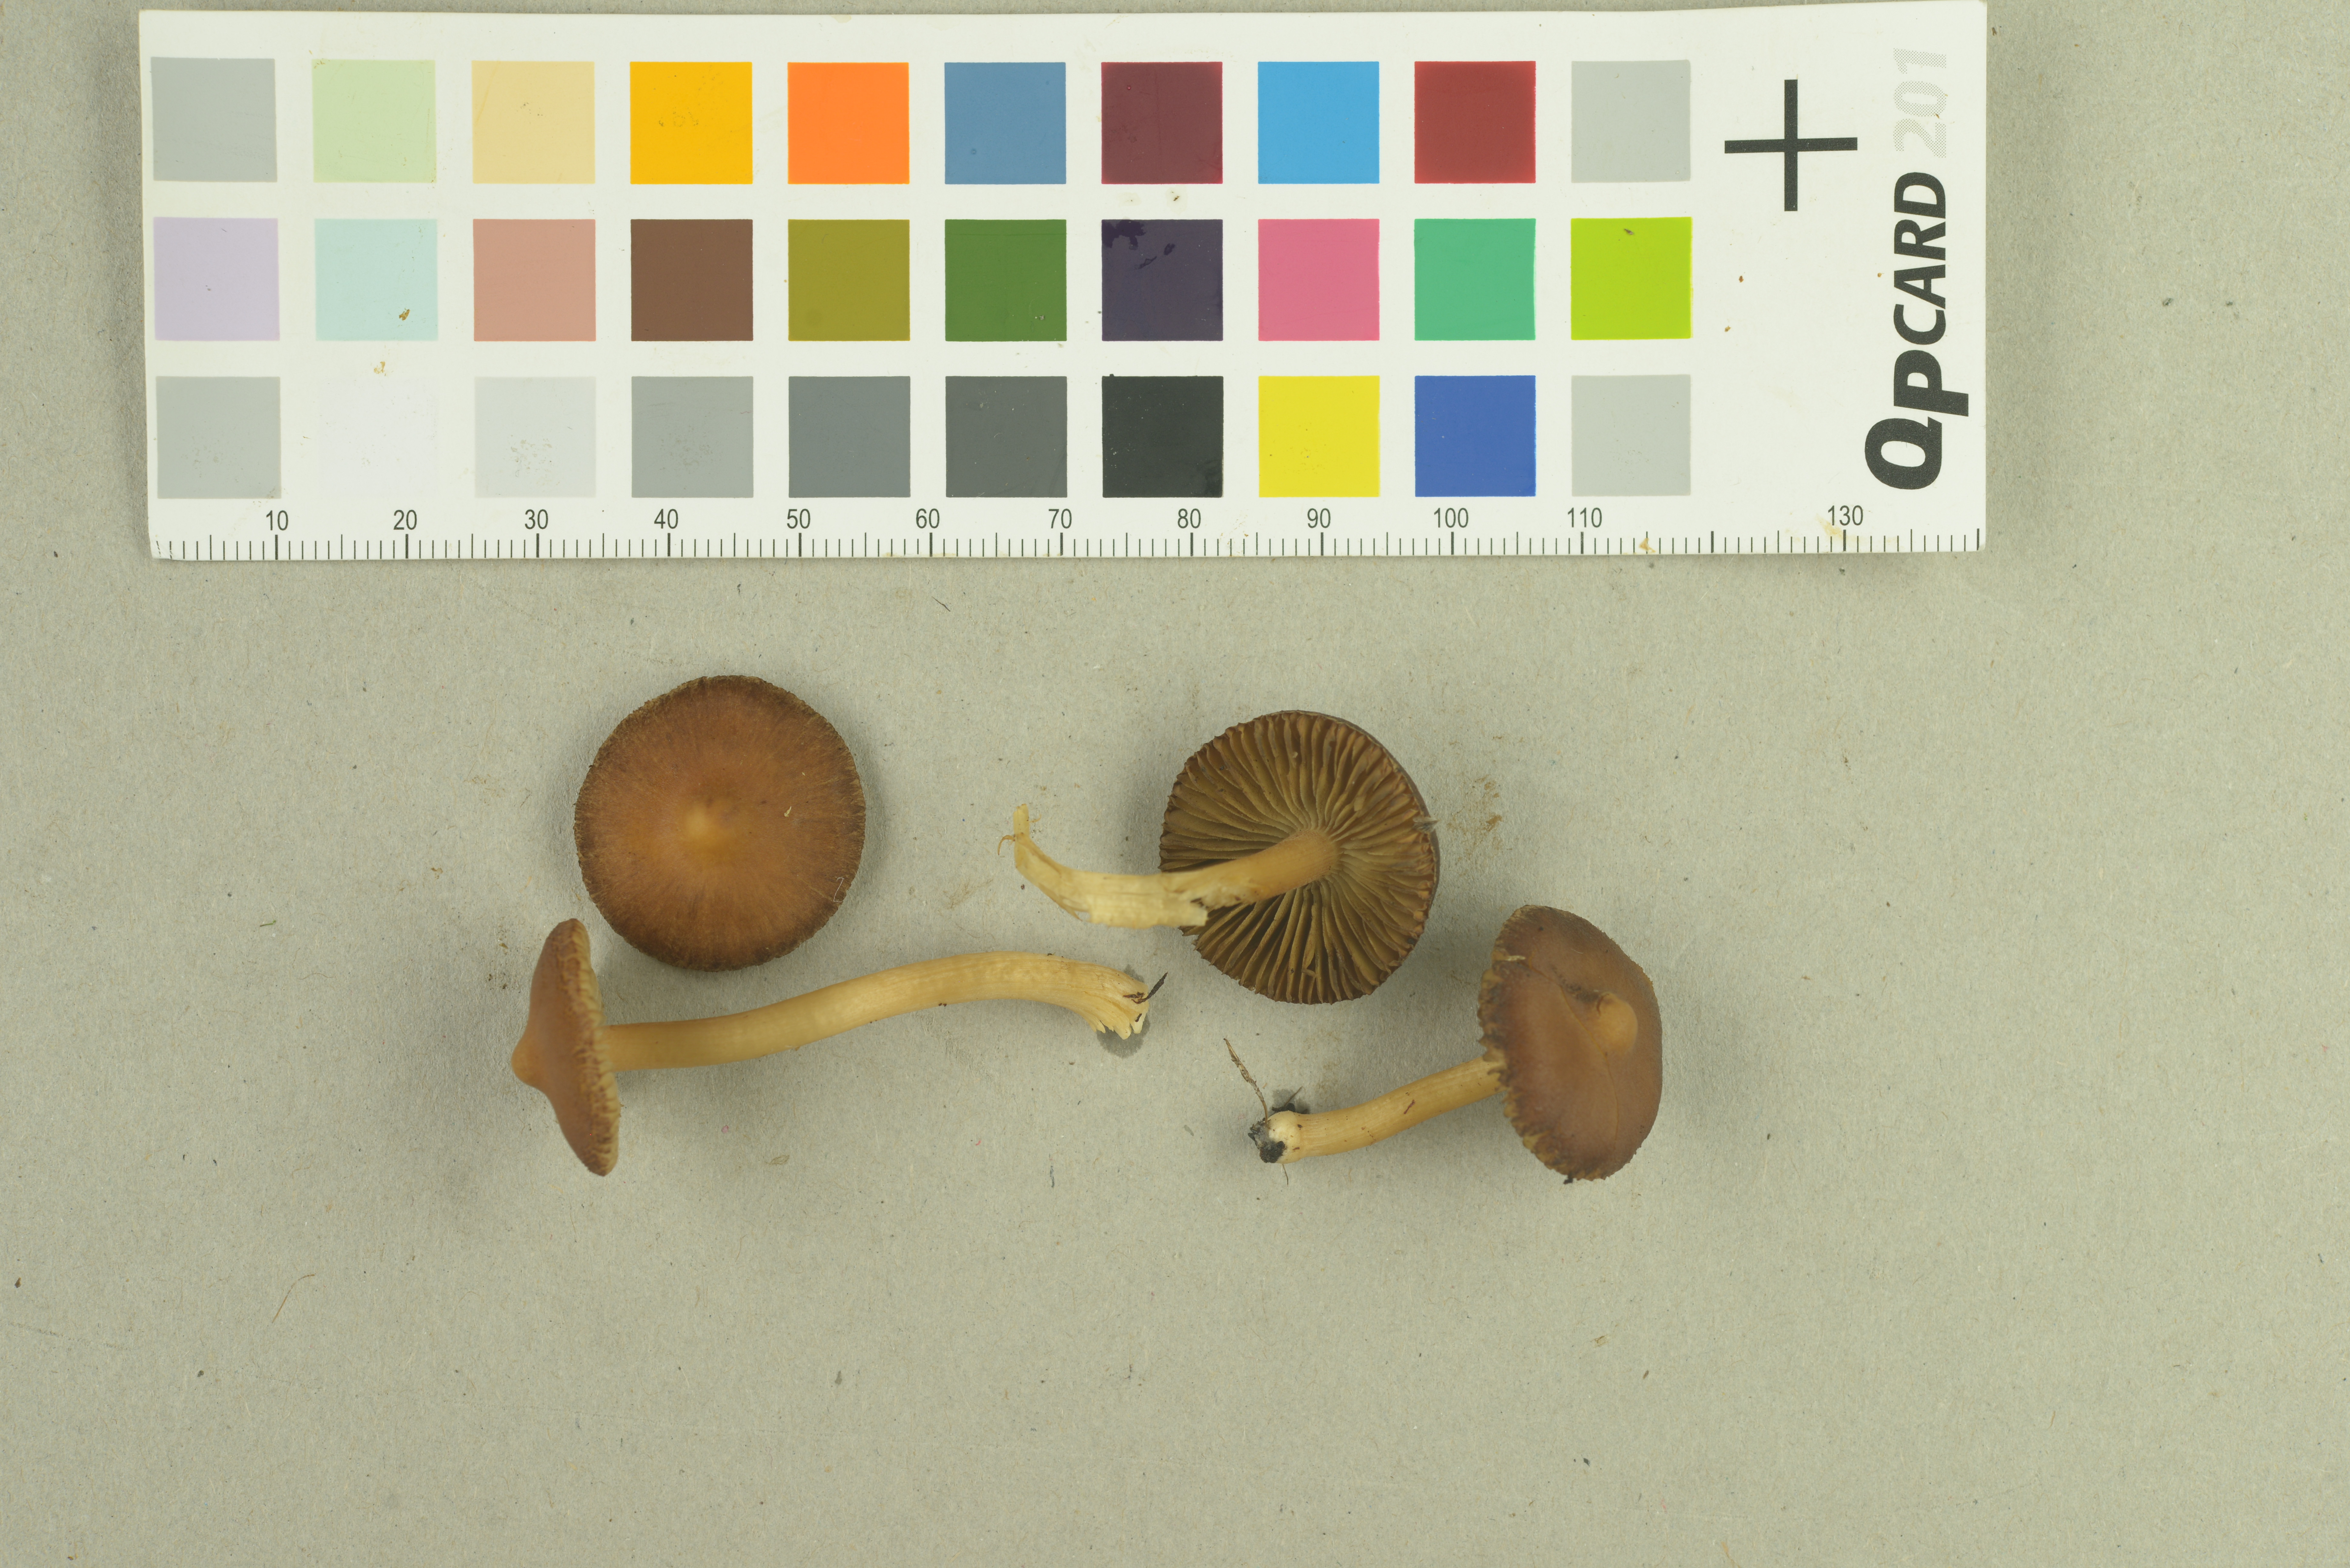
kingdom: Fungi
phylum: Basidiomycota
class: Agaricomycetes
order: Agaricales
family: Inocybaceae
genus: Inocybe
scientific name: Inocybe subpaleacea
